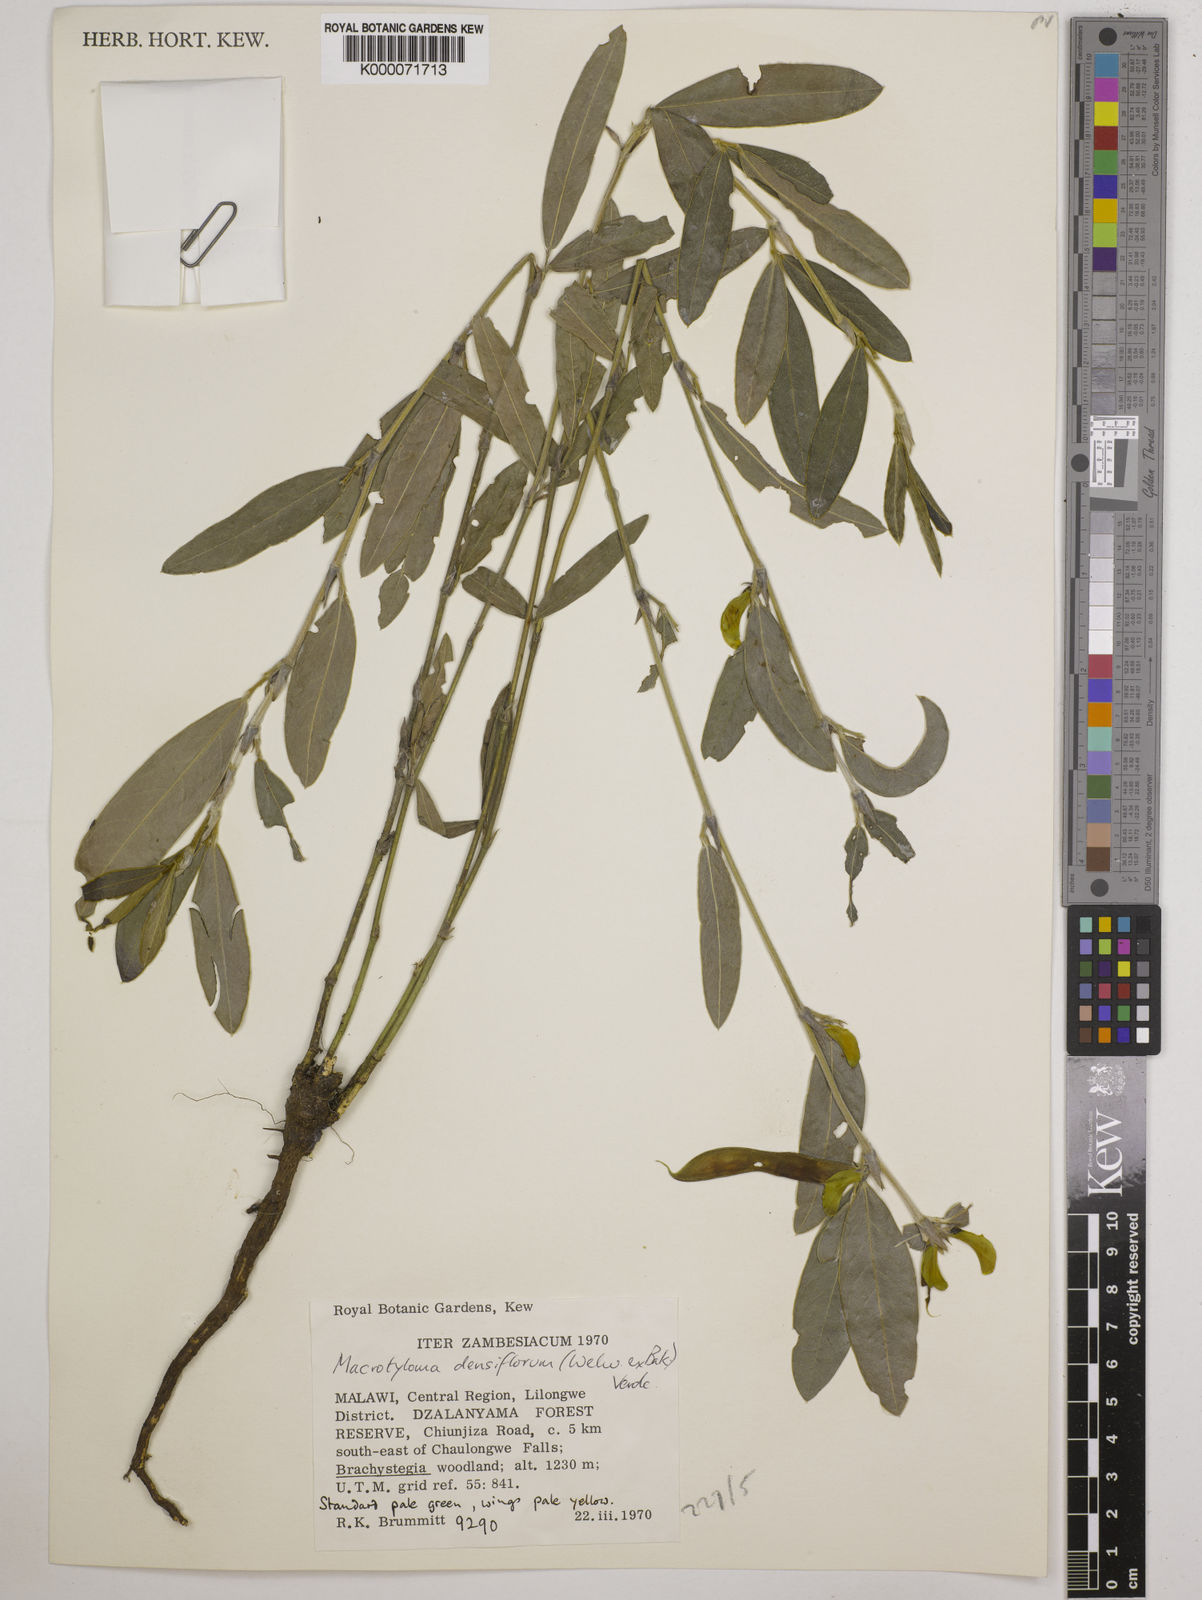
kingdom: Plantae
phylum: Tracheophyta
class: Magnoliopsida
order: Fabales
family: Fabaceae
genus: Macrotyloma
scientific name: Macrotyloma densiflorum
